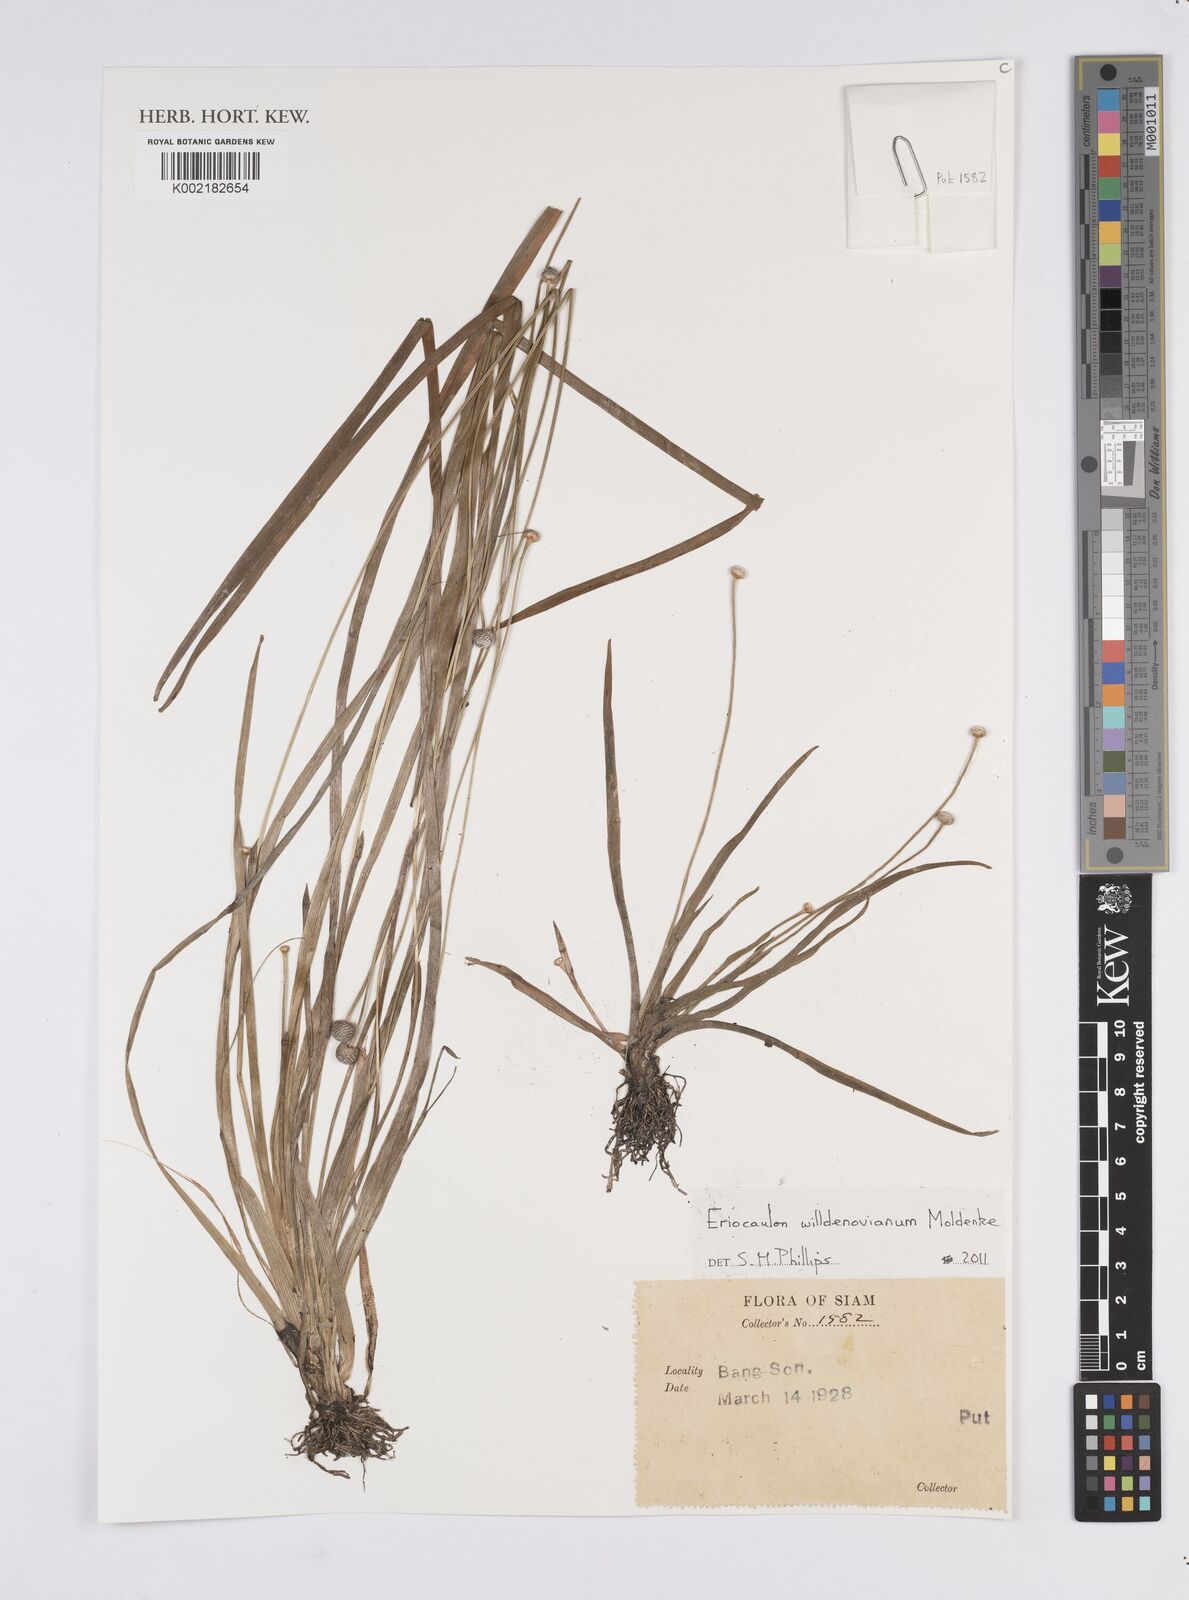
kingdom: Plantae
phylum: Tracheophyta
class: Liliopsida
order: Poales
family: Eriocaulaceae
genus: Eriocaulon
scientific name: Eriocaulon willdenovianum
